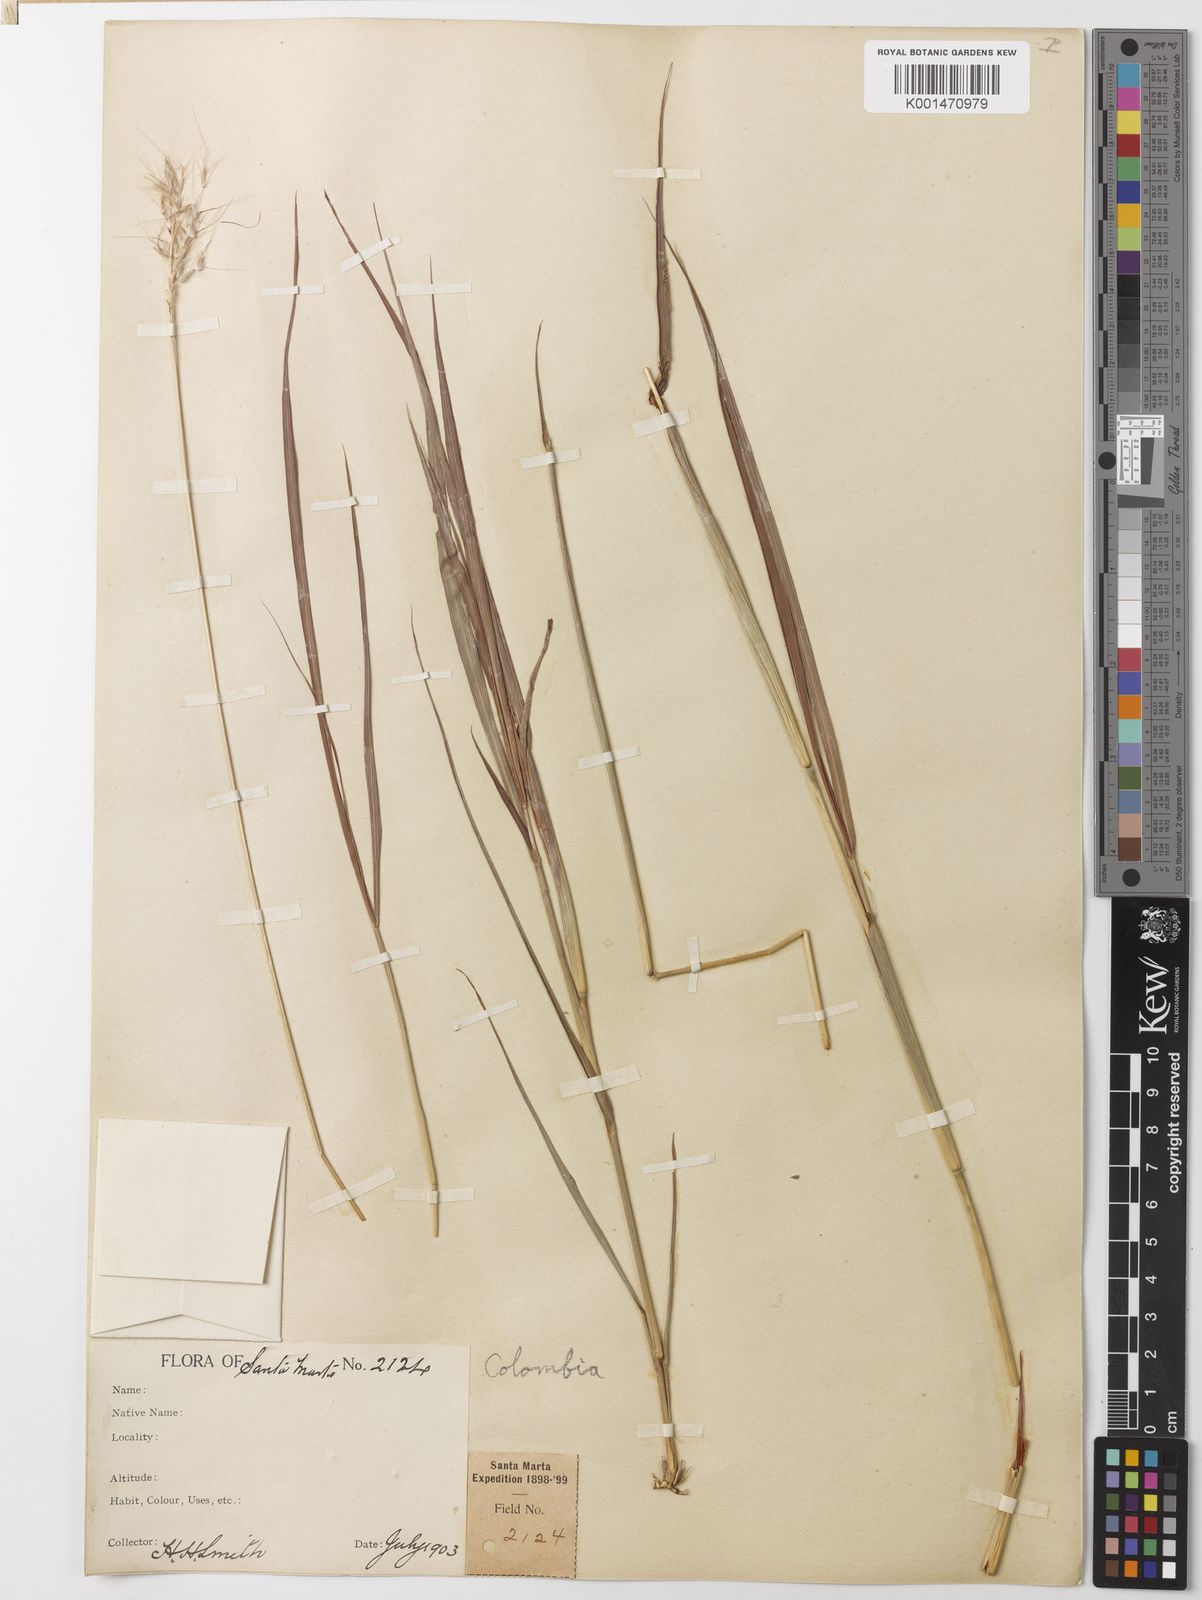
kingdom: Plantae
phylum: Tracheophyta
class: Liliopsida
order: Poales
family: Poaceae
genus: Bothriochloa
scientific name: Bothriochloa barbinodis
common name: Cane bluestem
